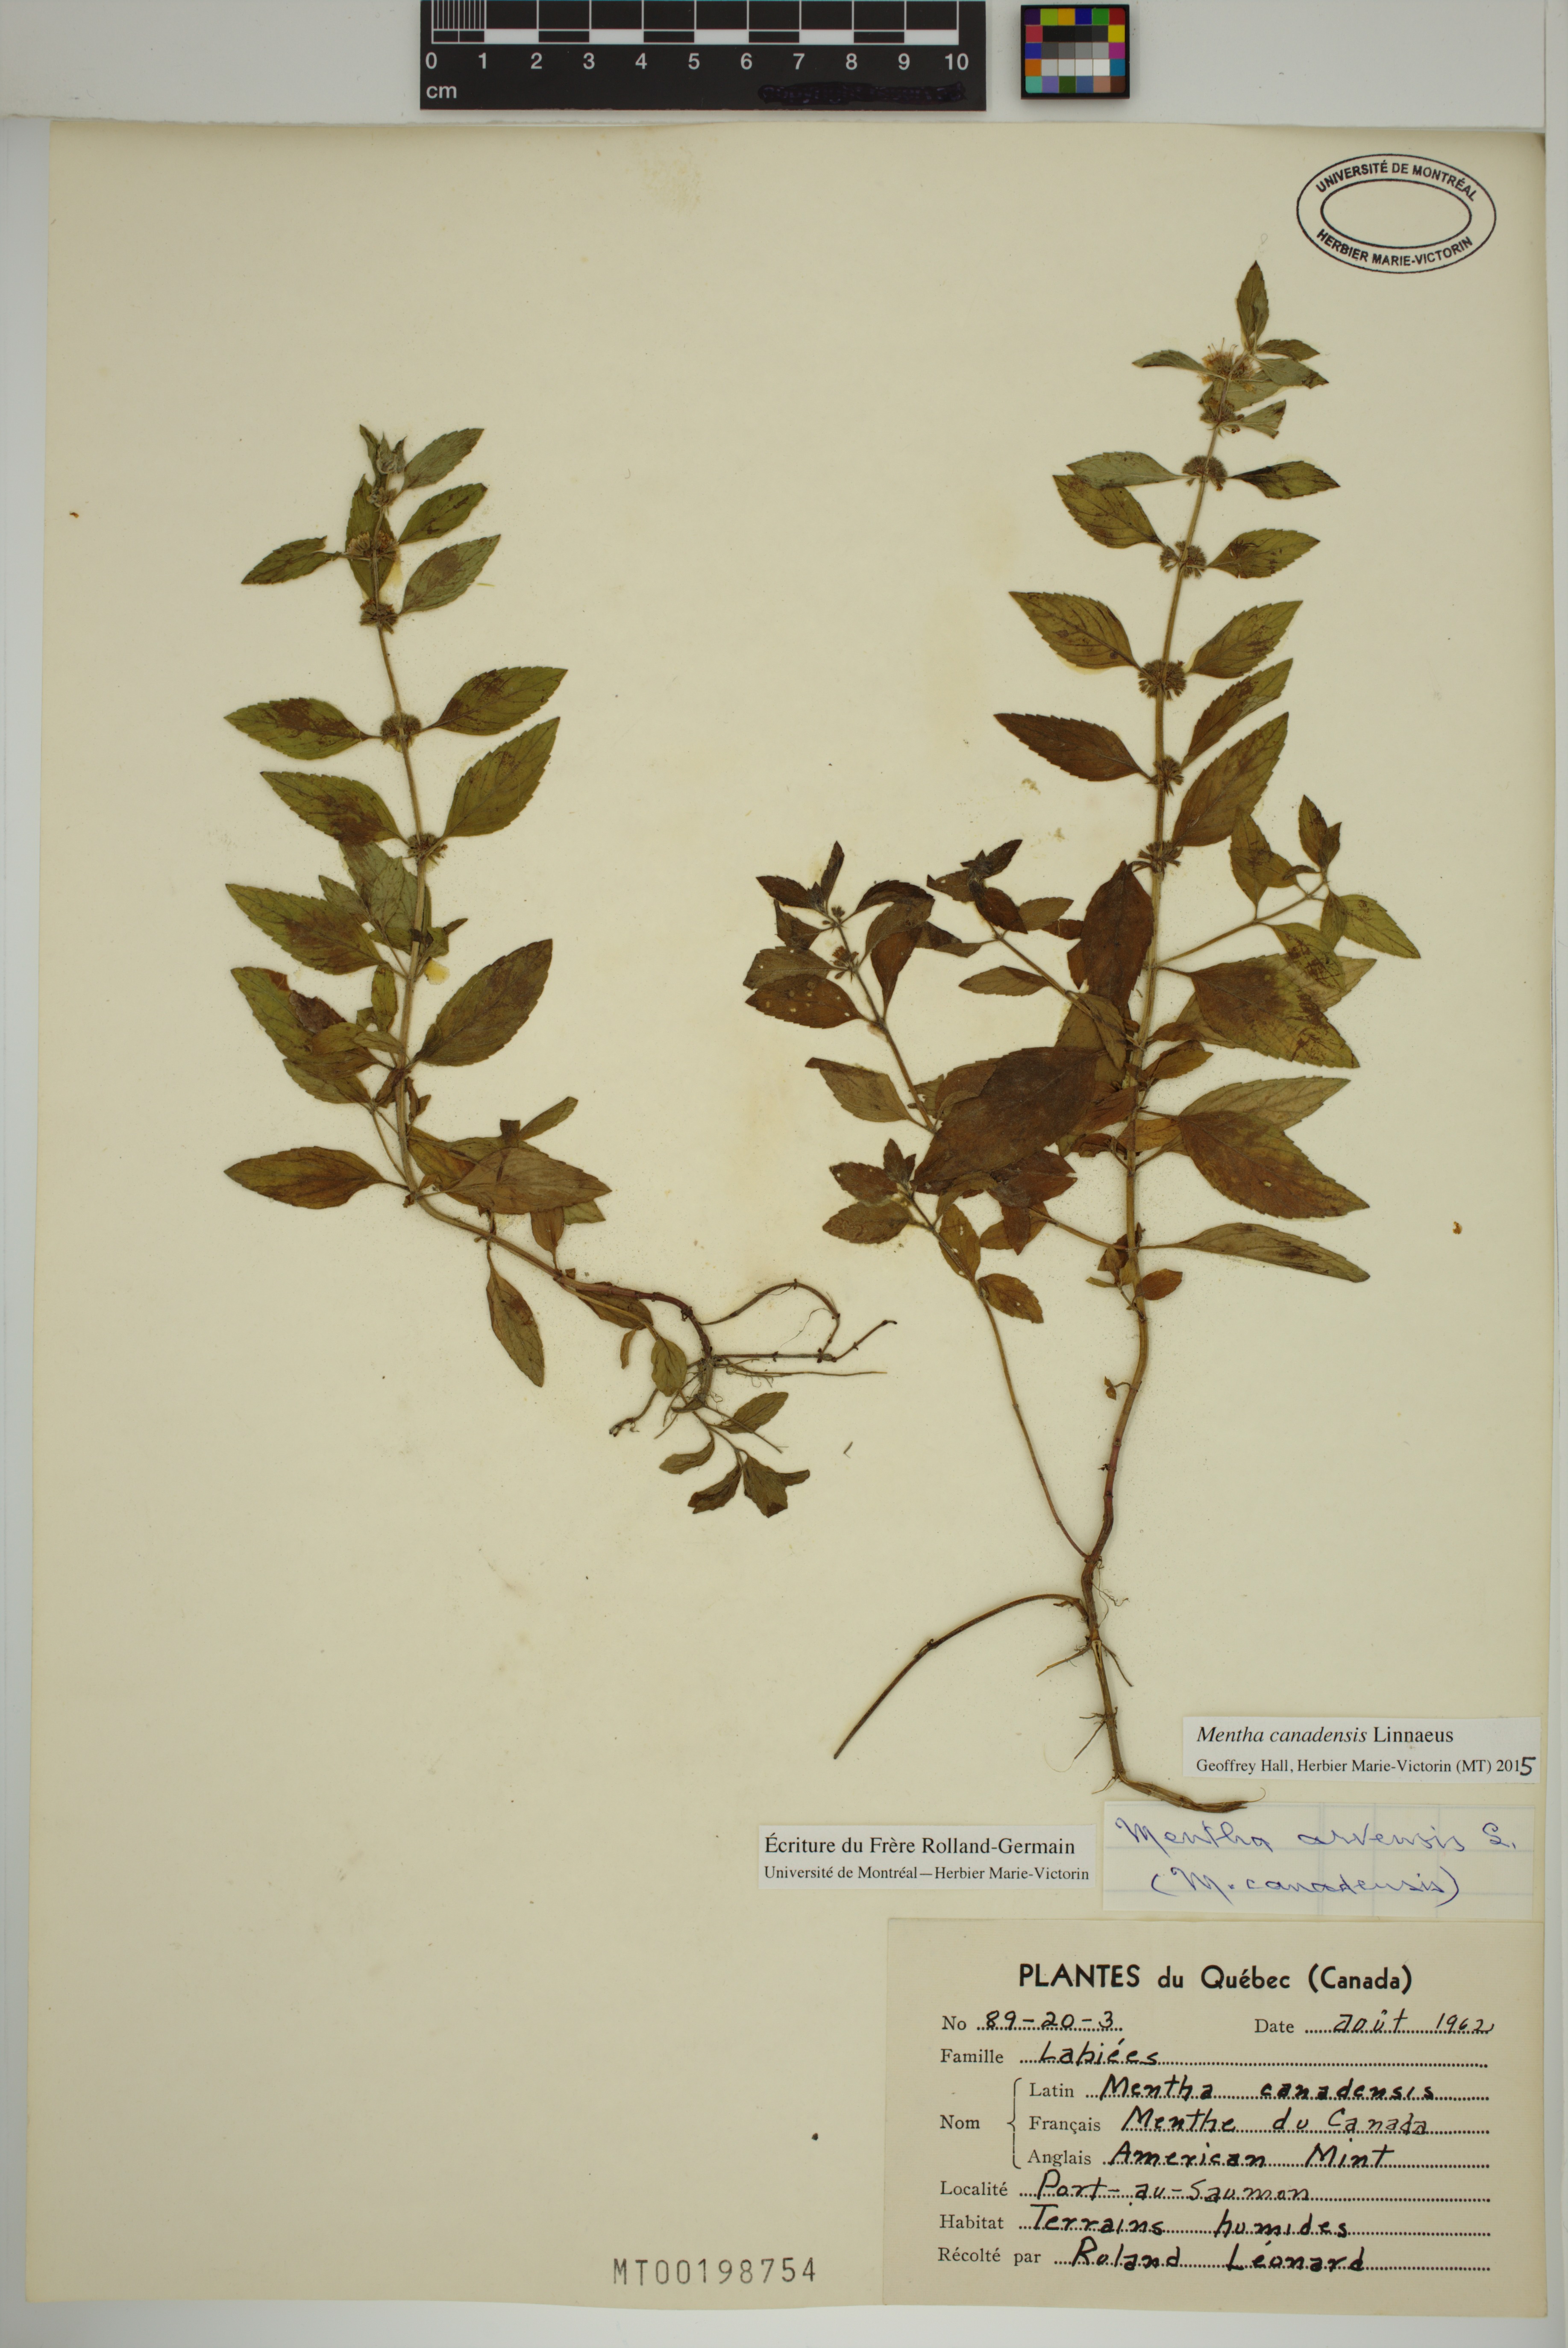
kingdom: Plantae
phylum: Tracheophyta
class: Magnoliopsida
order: Lamiales
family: Lamiaceae
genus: Mentha
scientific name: Mentha canadensis
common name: American corn mint
